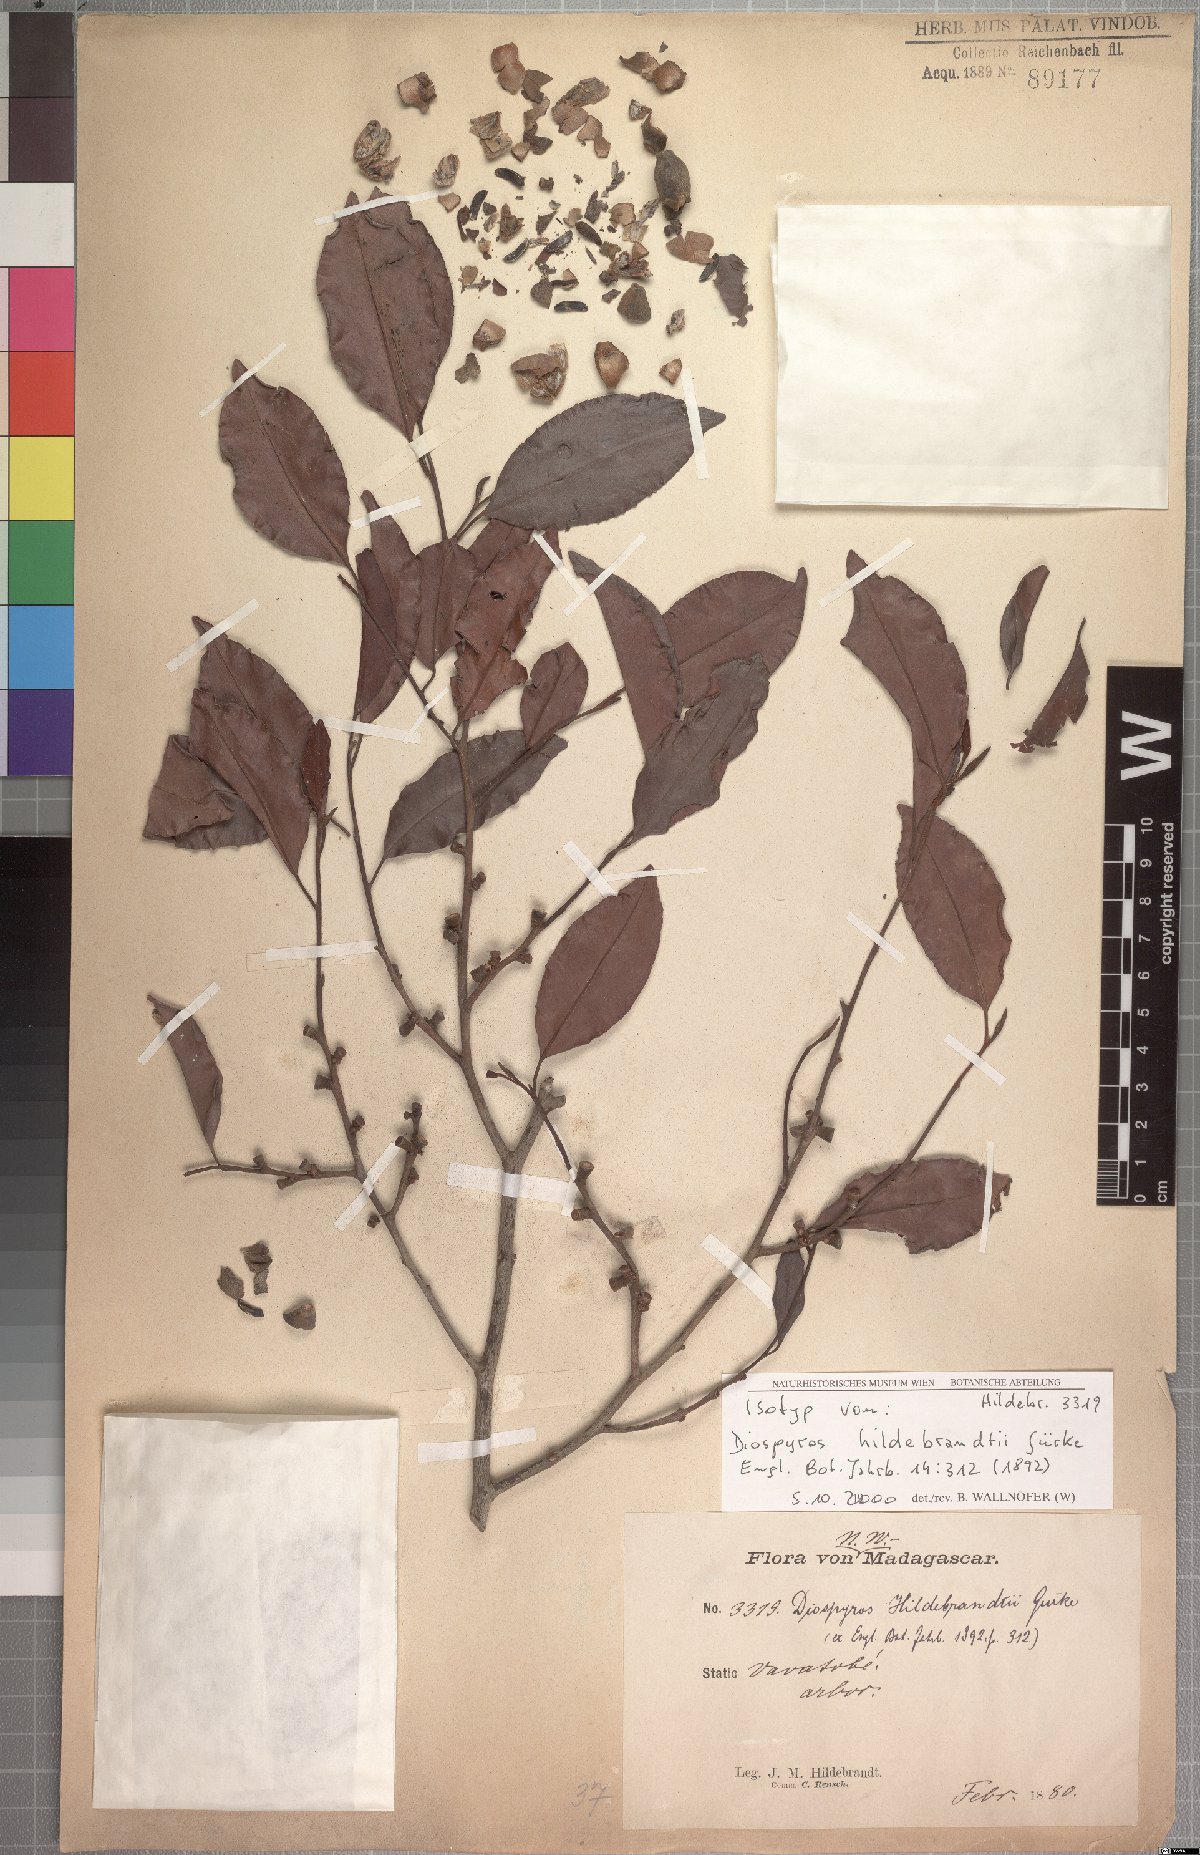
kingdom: Plantae
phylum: Tracheophyta
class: Magnoliopsida
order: Ericales
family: Ebenaceae
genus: Diospyros
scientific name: Diospyros bernieriana
